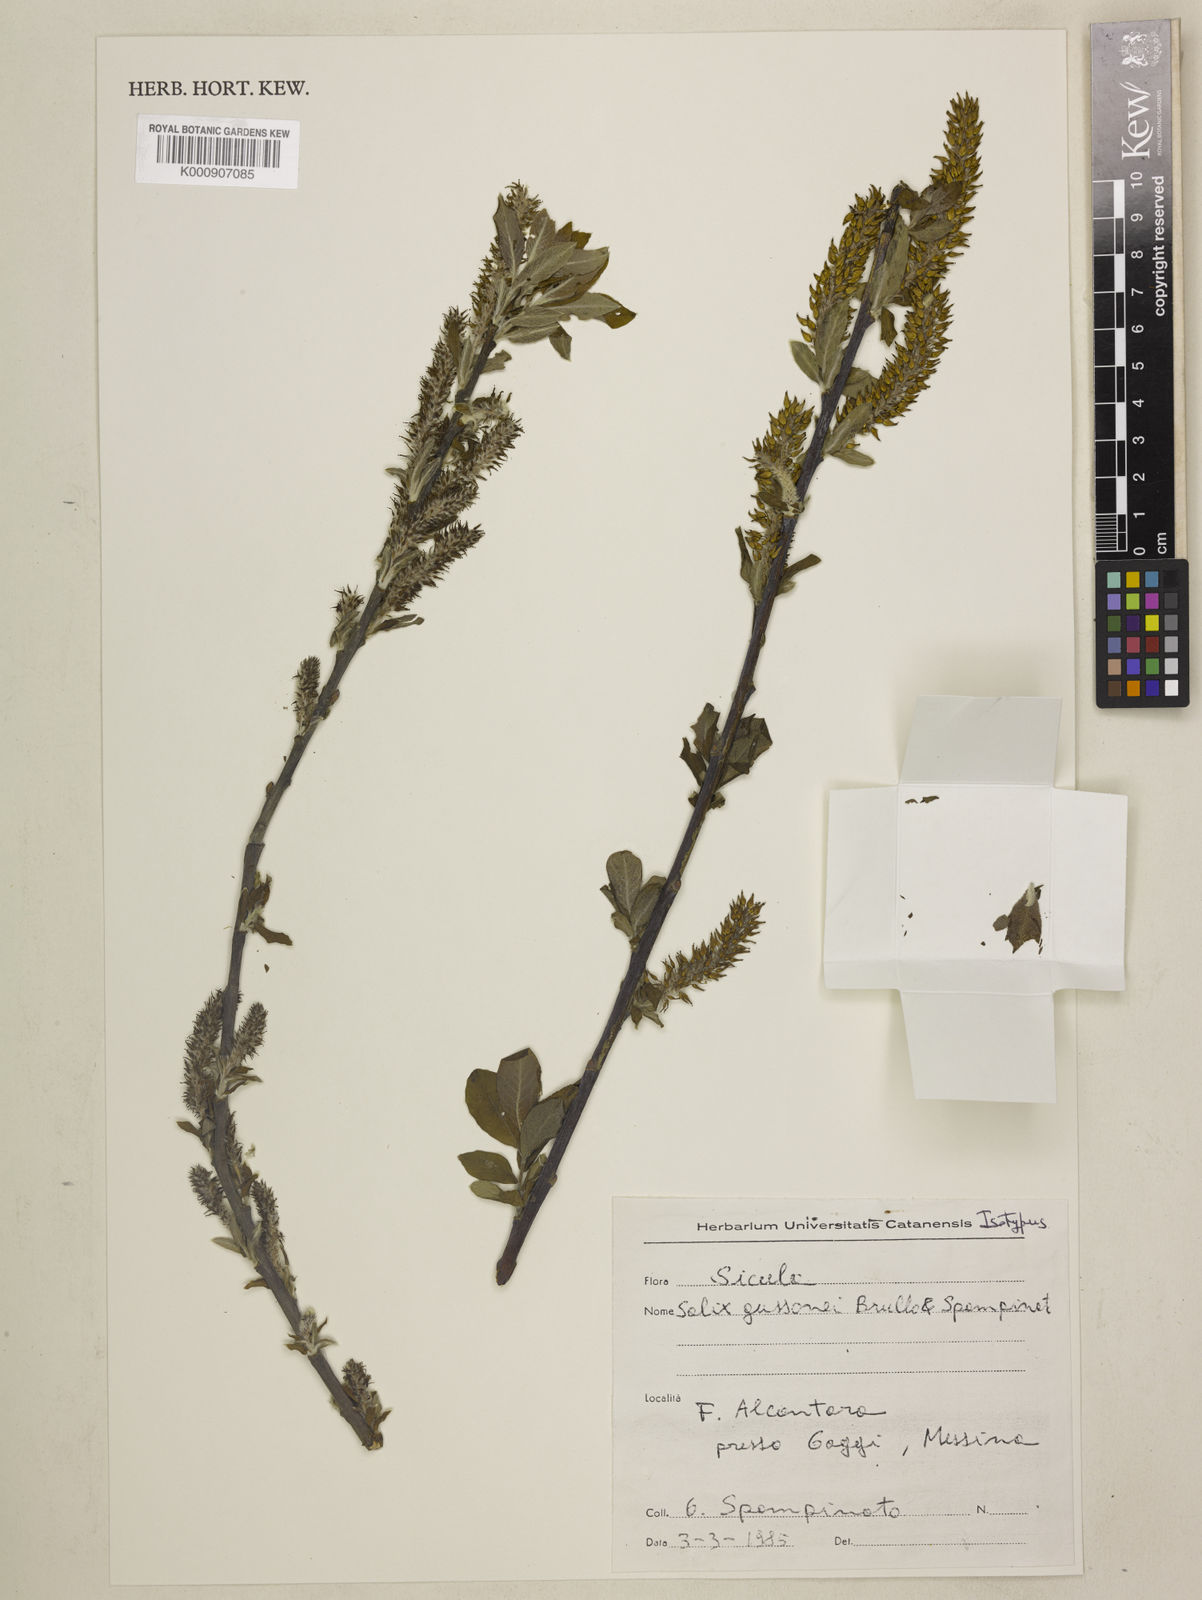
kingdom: Plantae
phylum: Tracheophyta
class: Magnoliopsida
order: Malpighiales
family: Salicaceae
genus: Salix
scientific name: Salix gussonei
